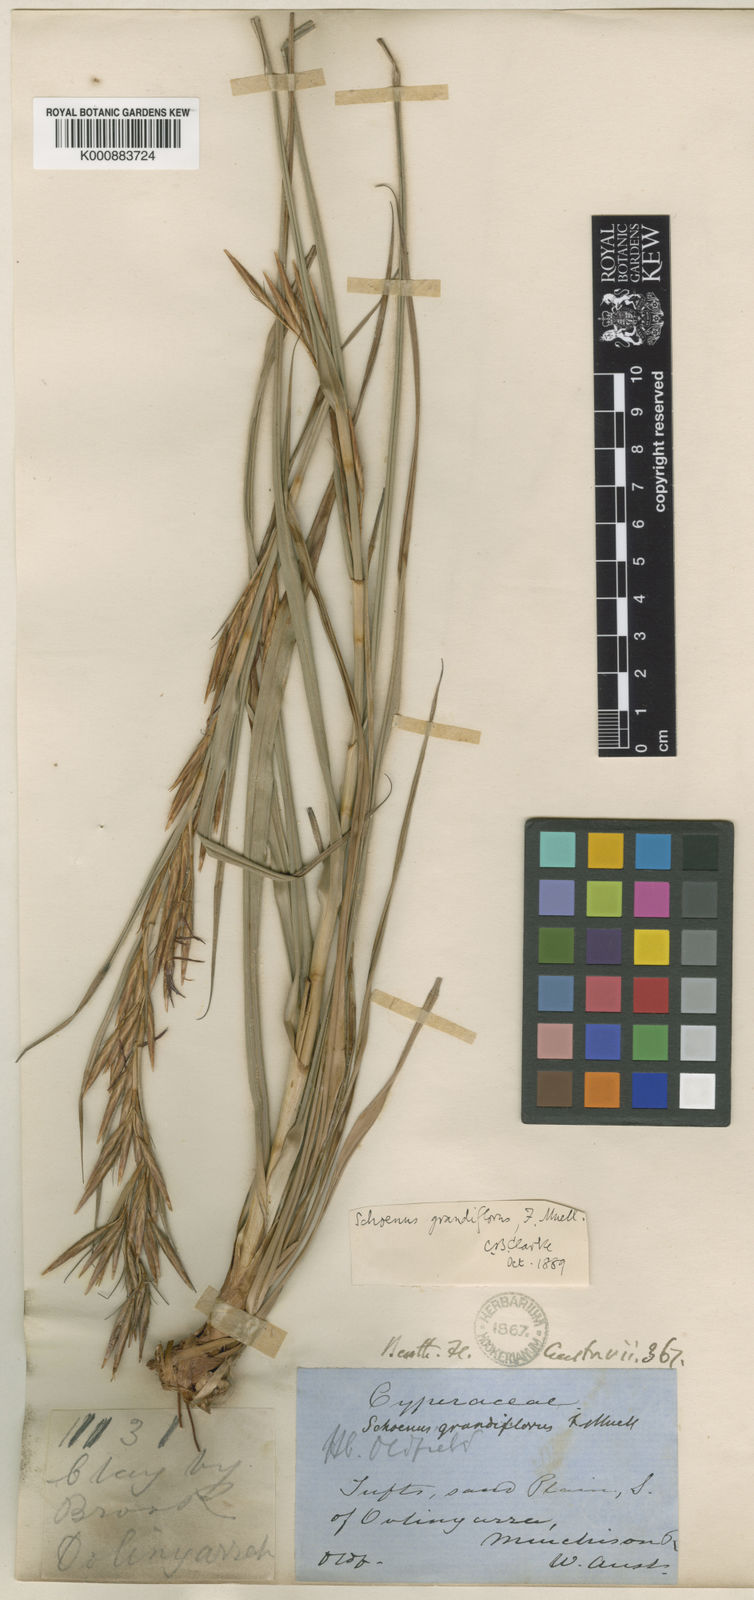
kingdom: Plantae
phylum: Tracheophyta
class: Liliopsida
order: Poales
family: Cyperaceae
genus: Schoenus
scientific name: Schoenus grandiflorus
